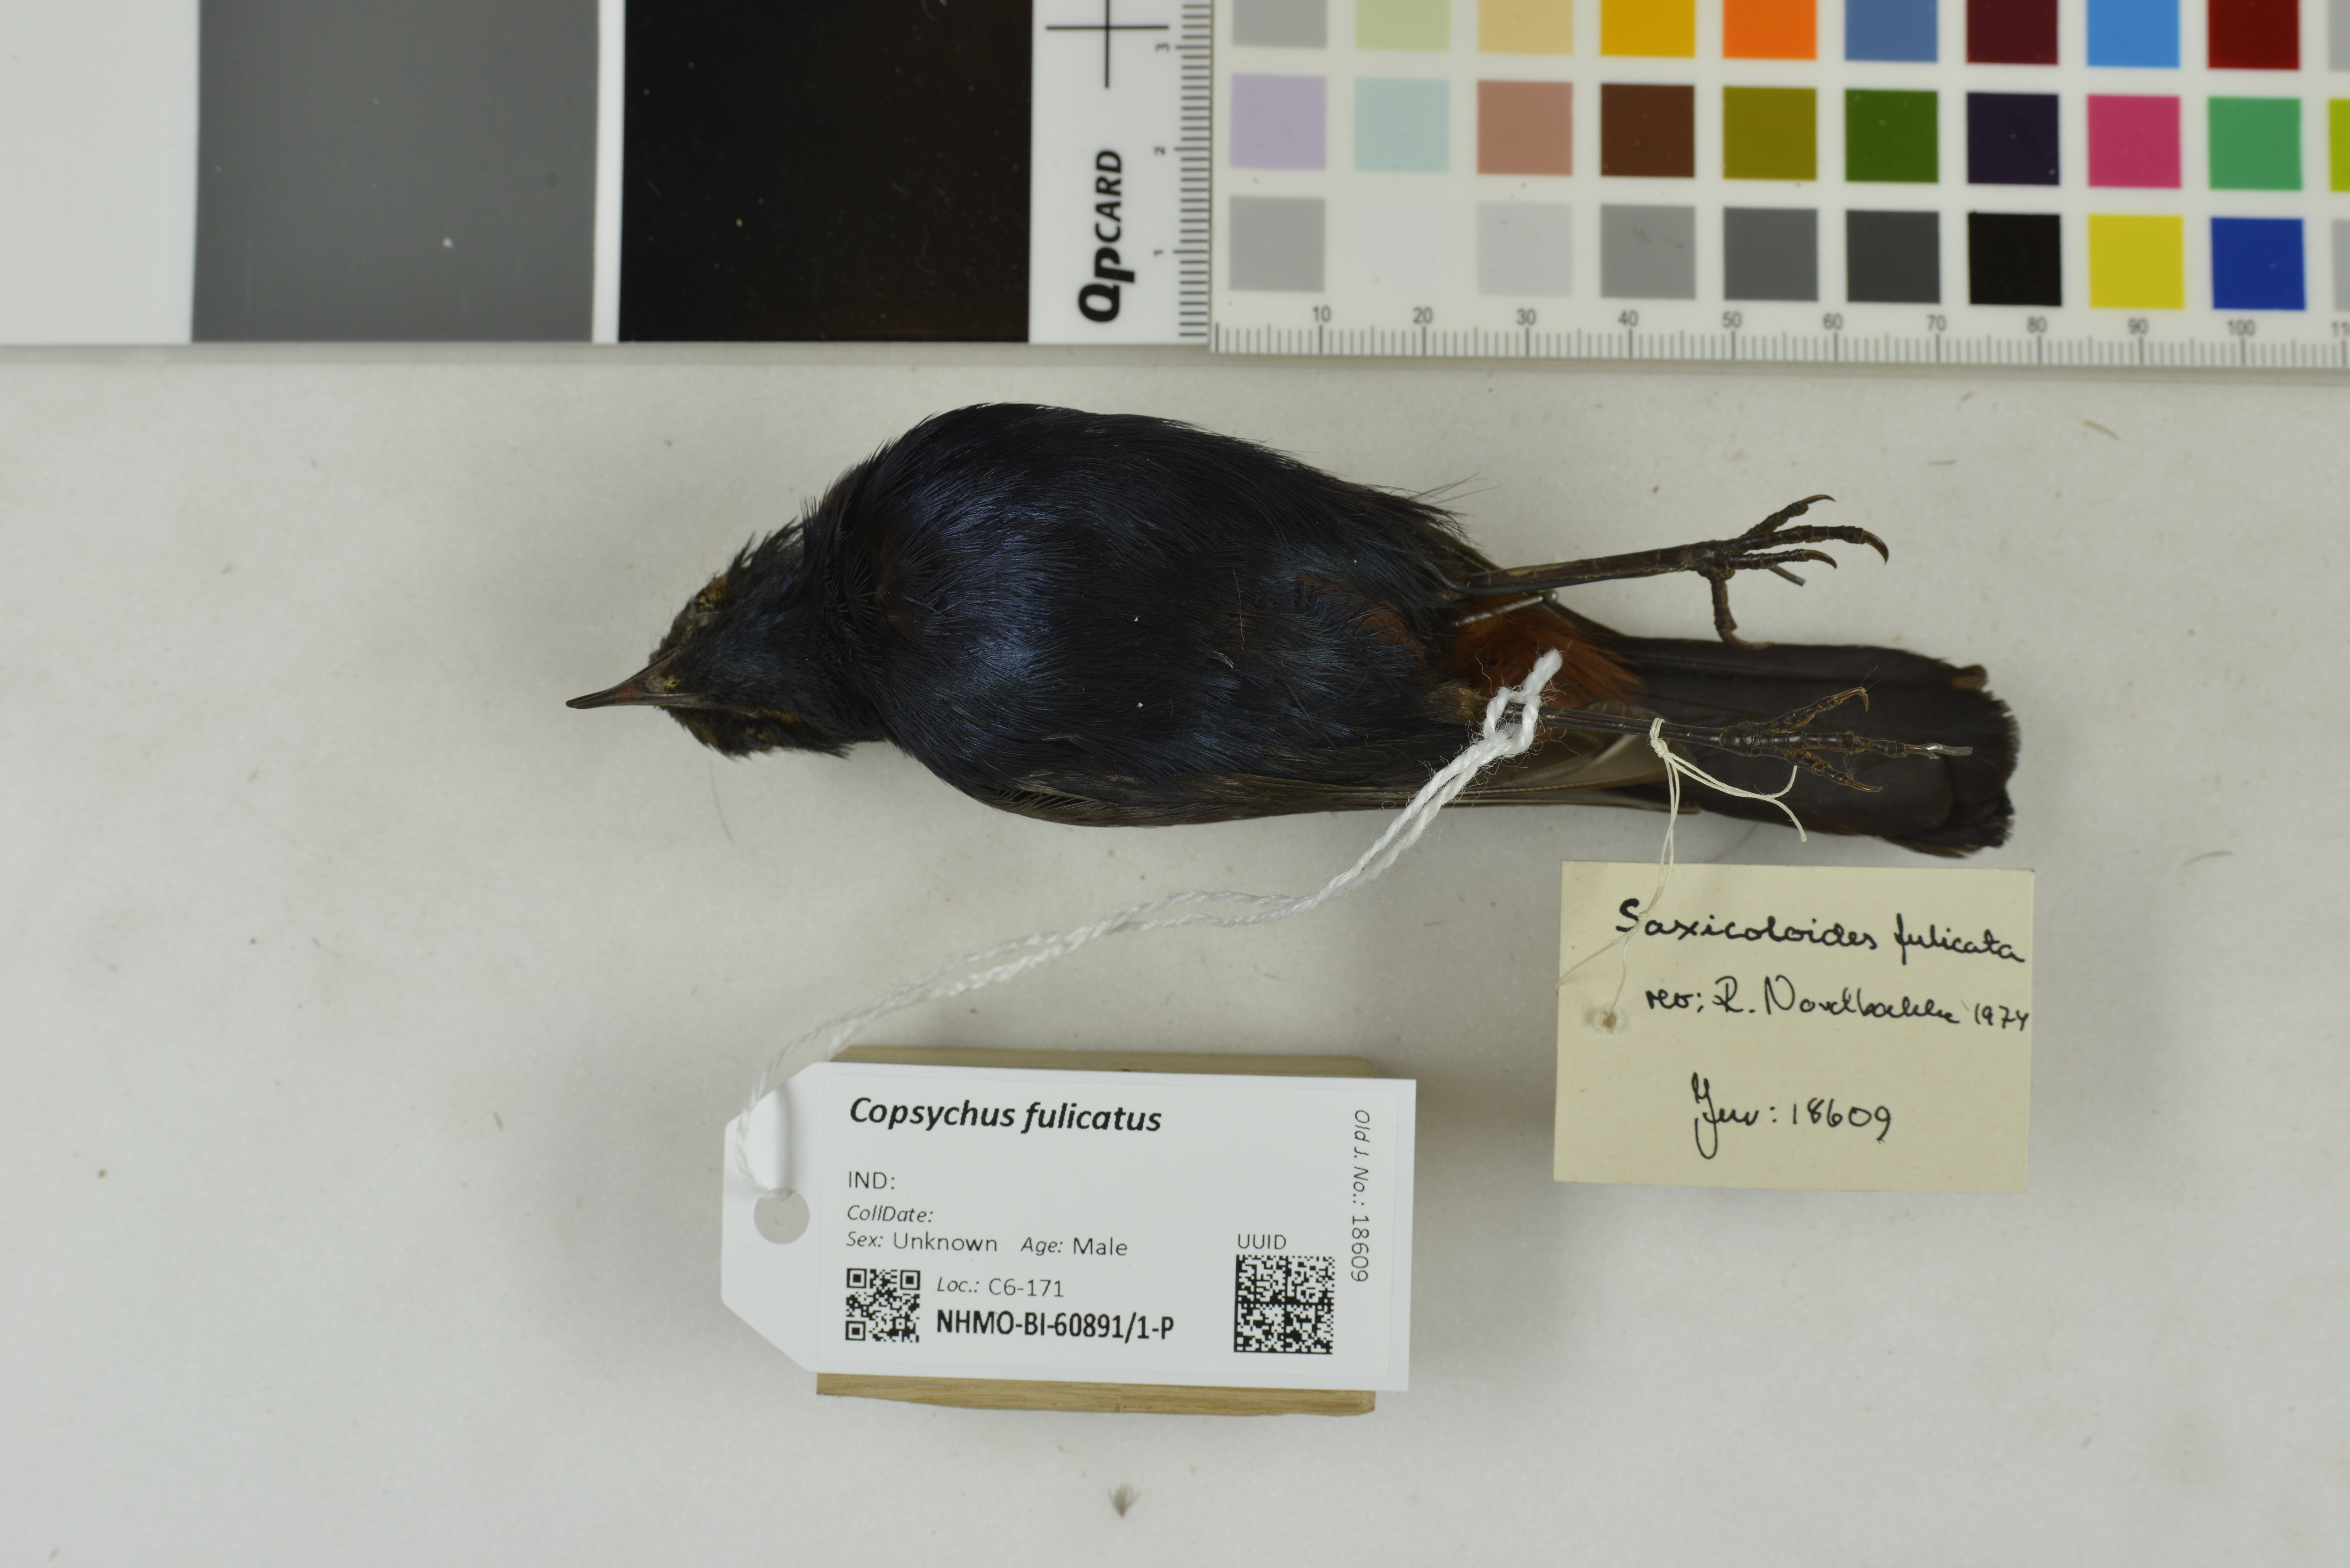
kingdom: Animalia
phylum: Chordata
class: Aves
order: Passeriformes
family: Muscicapidae
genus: Saxicoloides
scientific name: Saxicoloides fulicatus
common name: Indian robin
